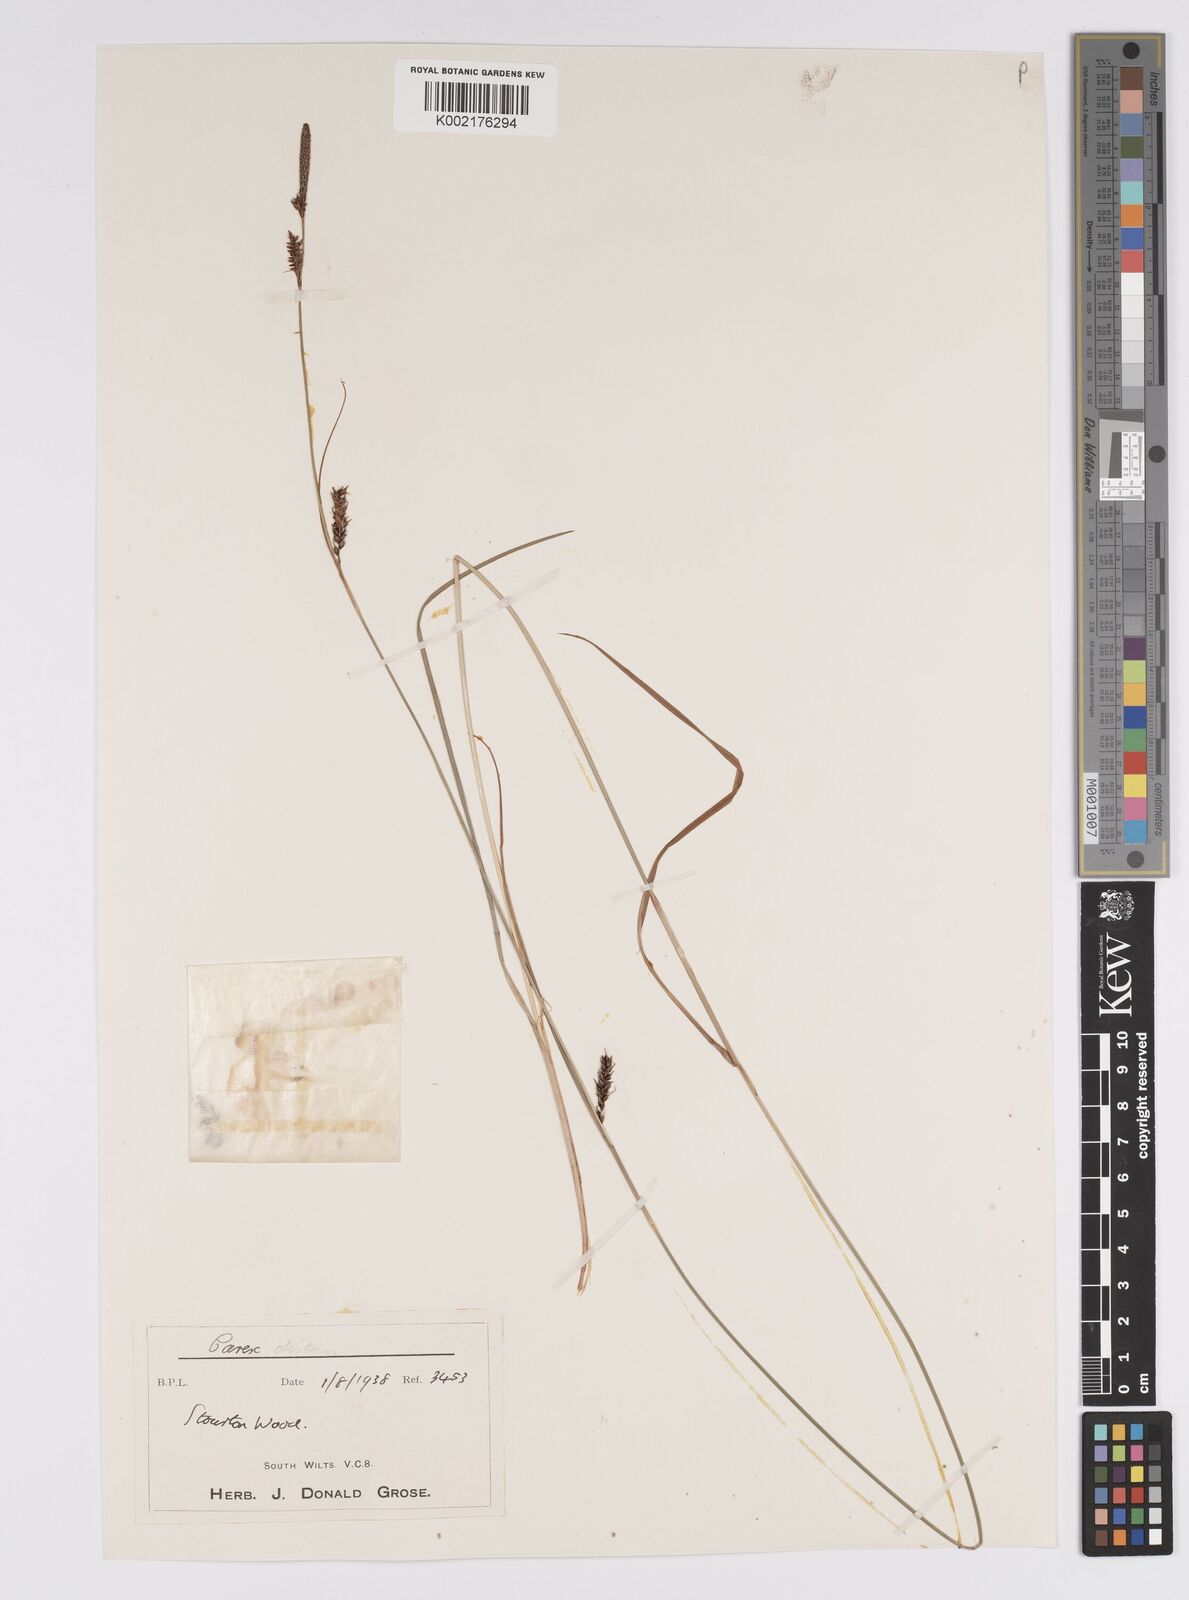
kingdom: Plantae
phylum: Tracheophyta
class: Liliopsida
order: Poales
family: Cyperaceae
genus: Carex
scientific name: Carex distans
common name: Distant sedge
